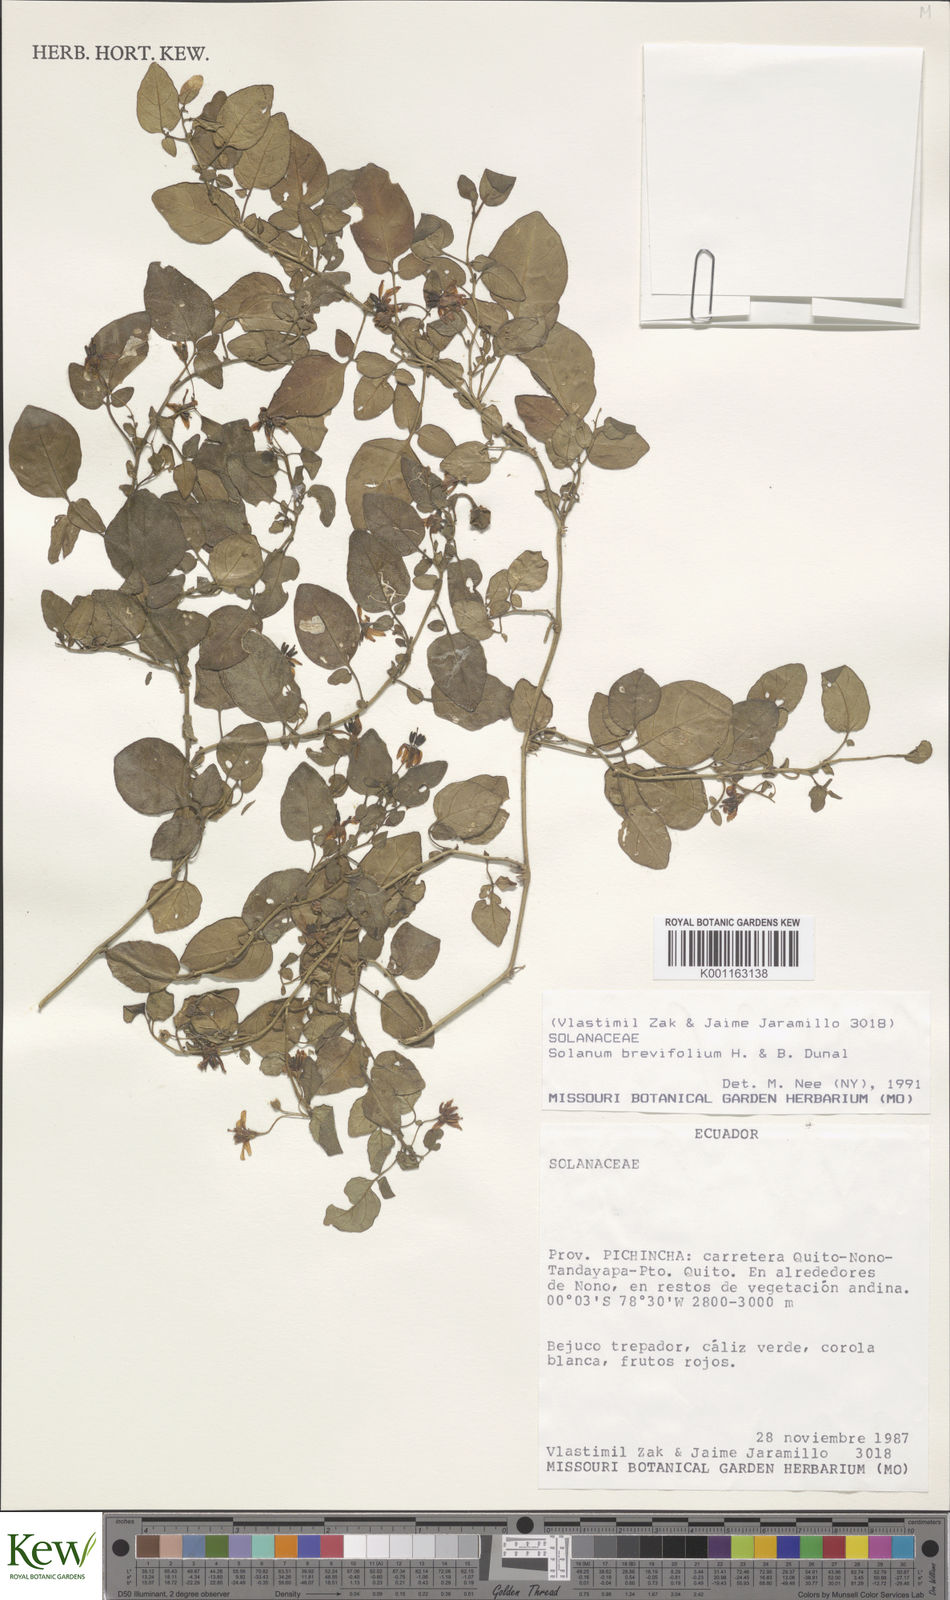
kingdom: Plantae
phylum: Tracheophyta
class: Magnoliopsida
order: Solanales
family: Solanaceae
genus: Solanum
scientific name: Solanum brevifolium
